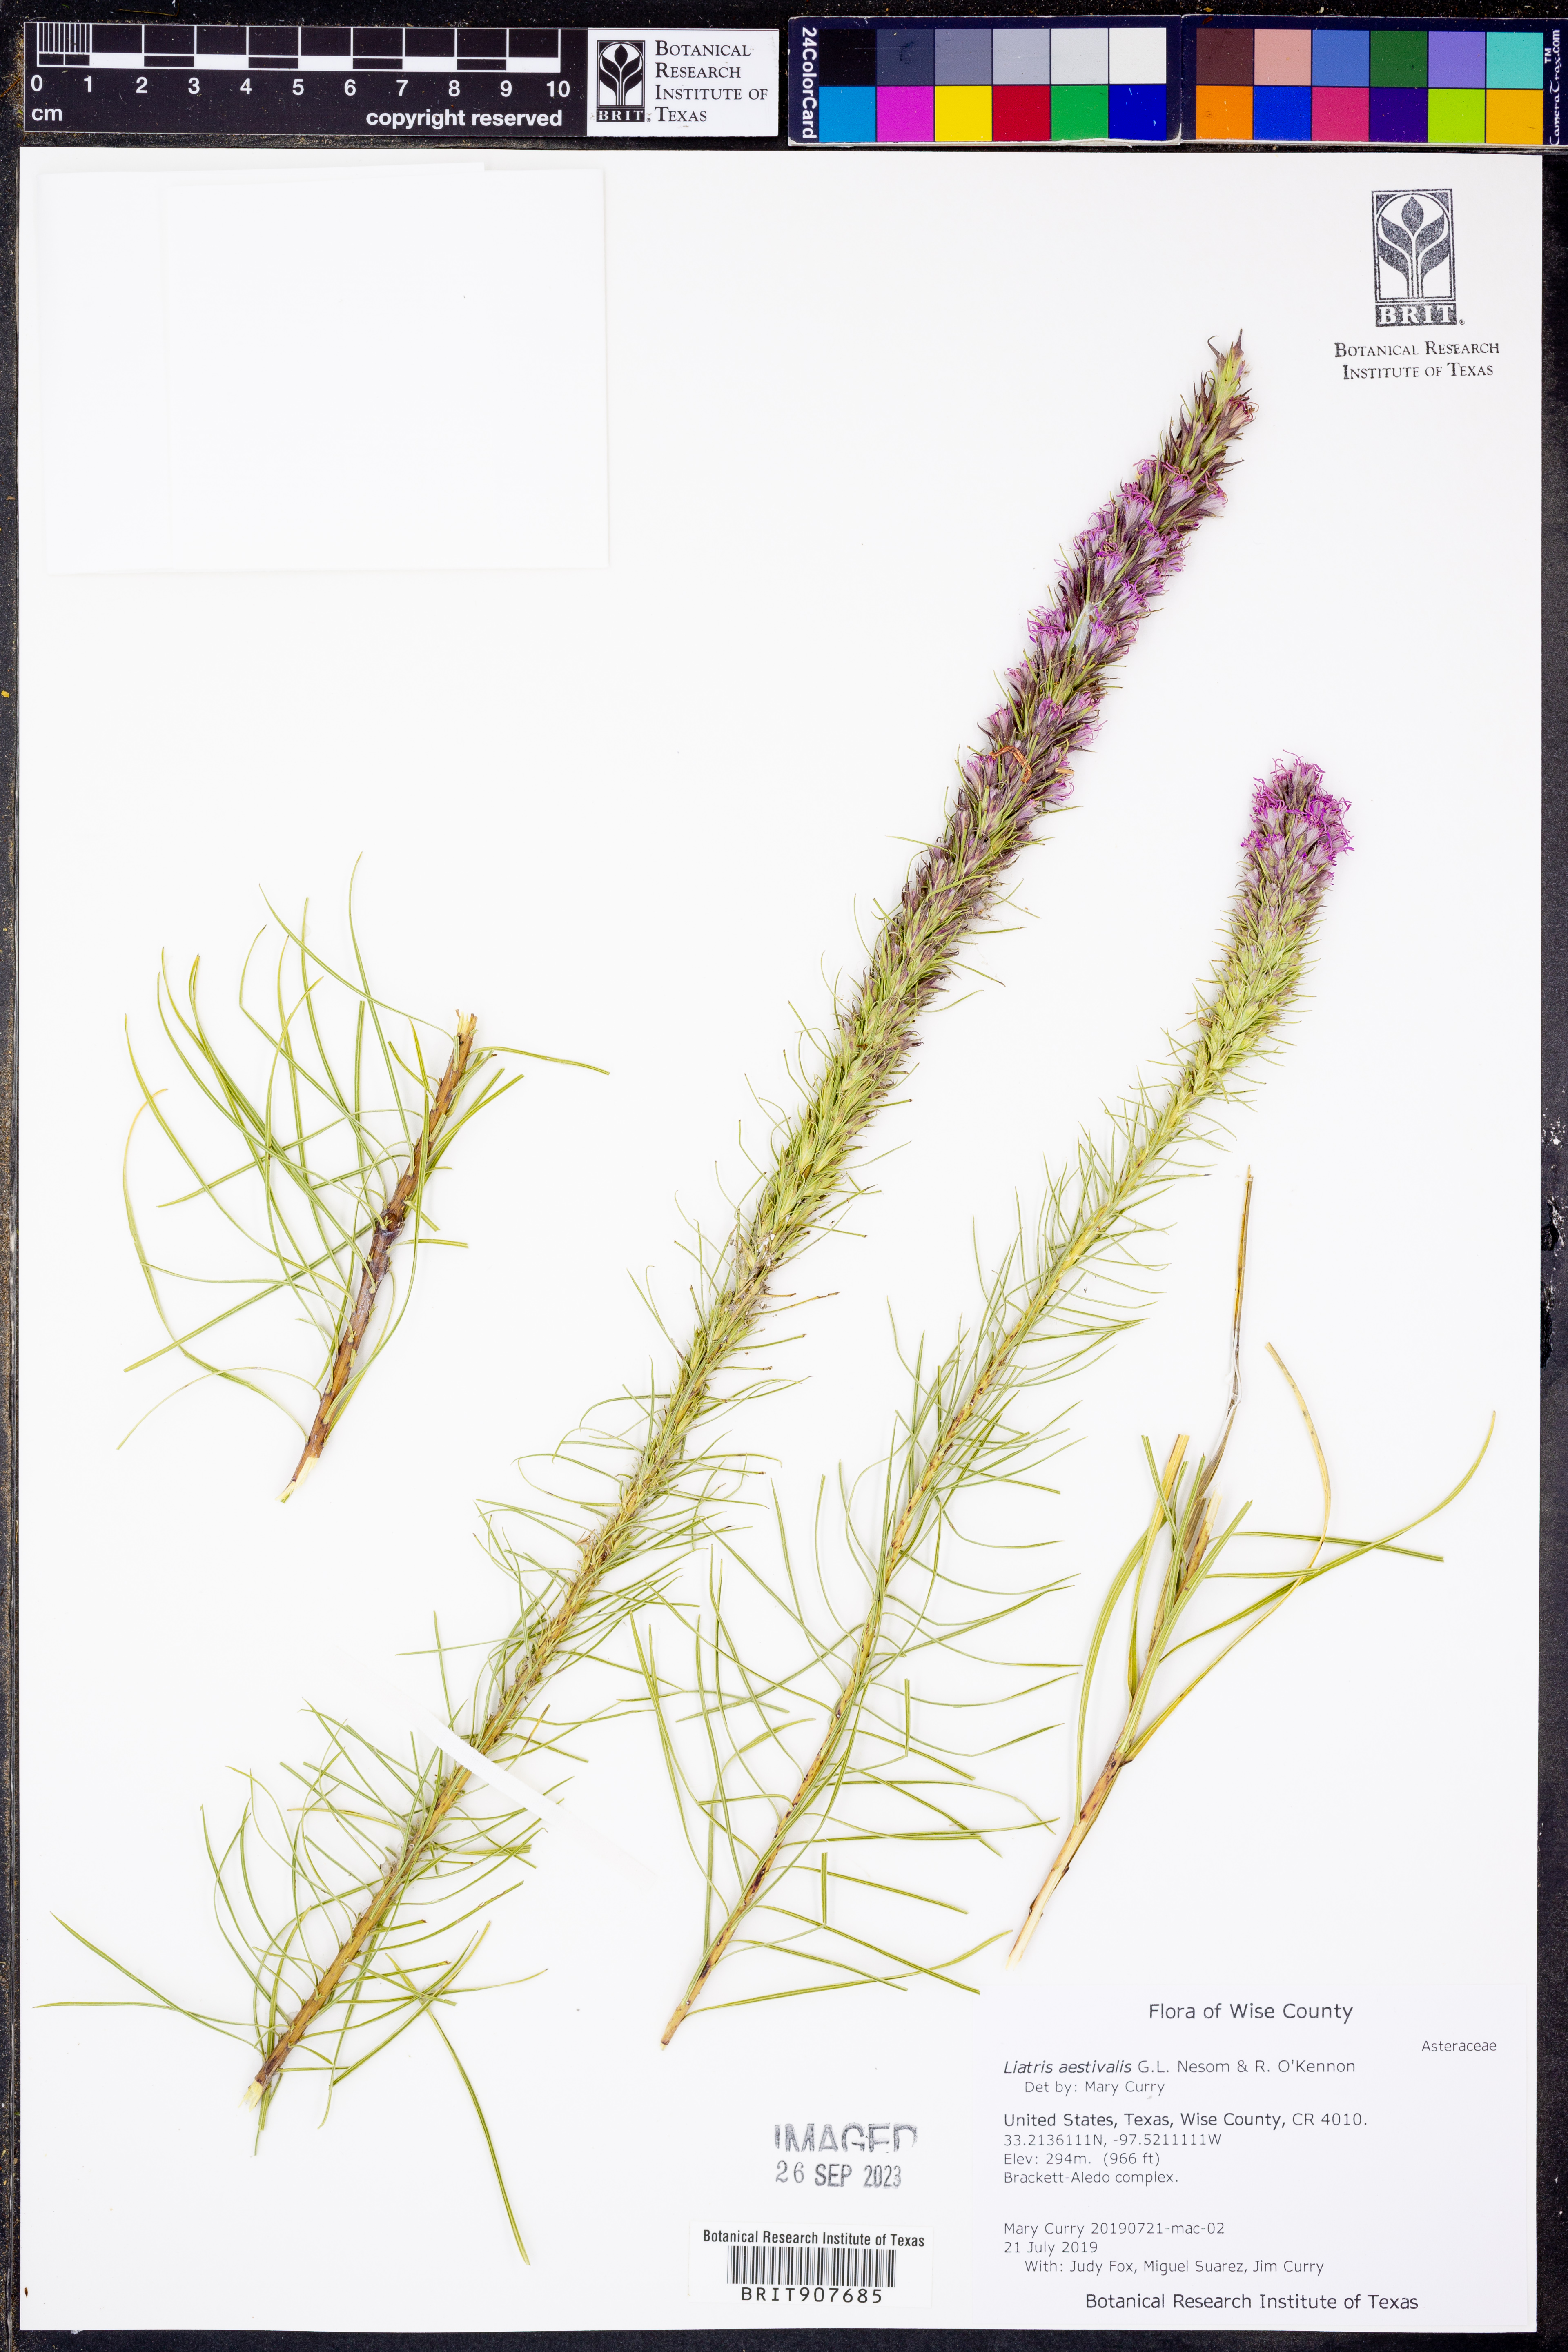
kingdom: Plantae
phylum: Tracheophyta
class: Magnoliopsida
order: Asterales
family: Asteraceae
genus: Liatris
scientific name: Liatris aestivalis
